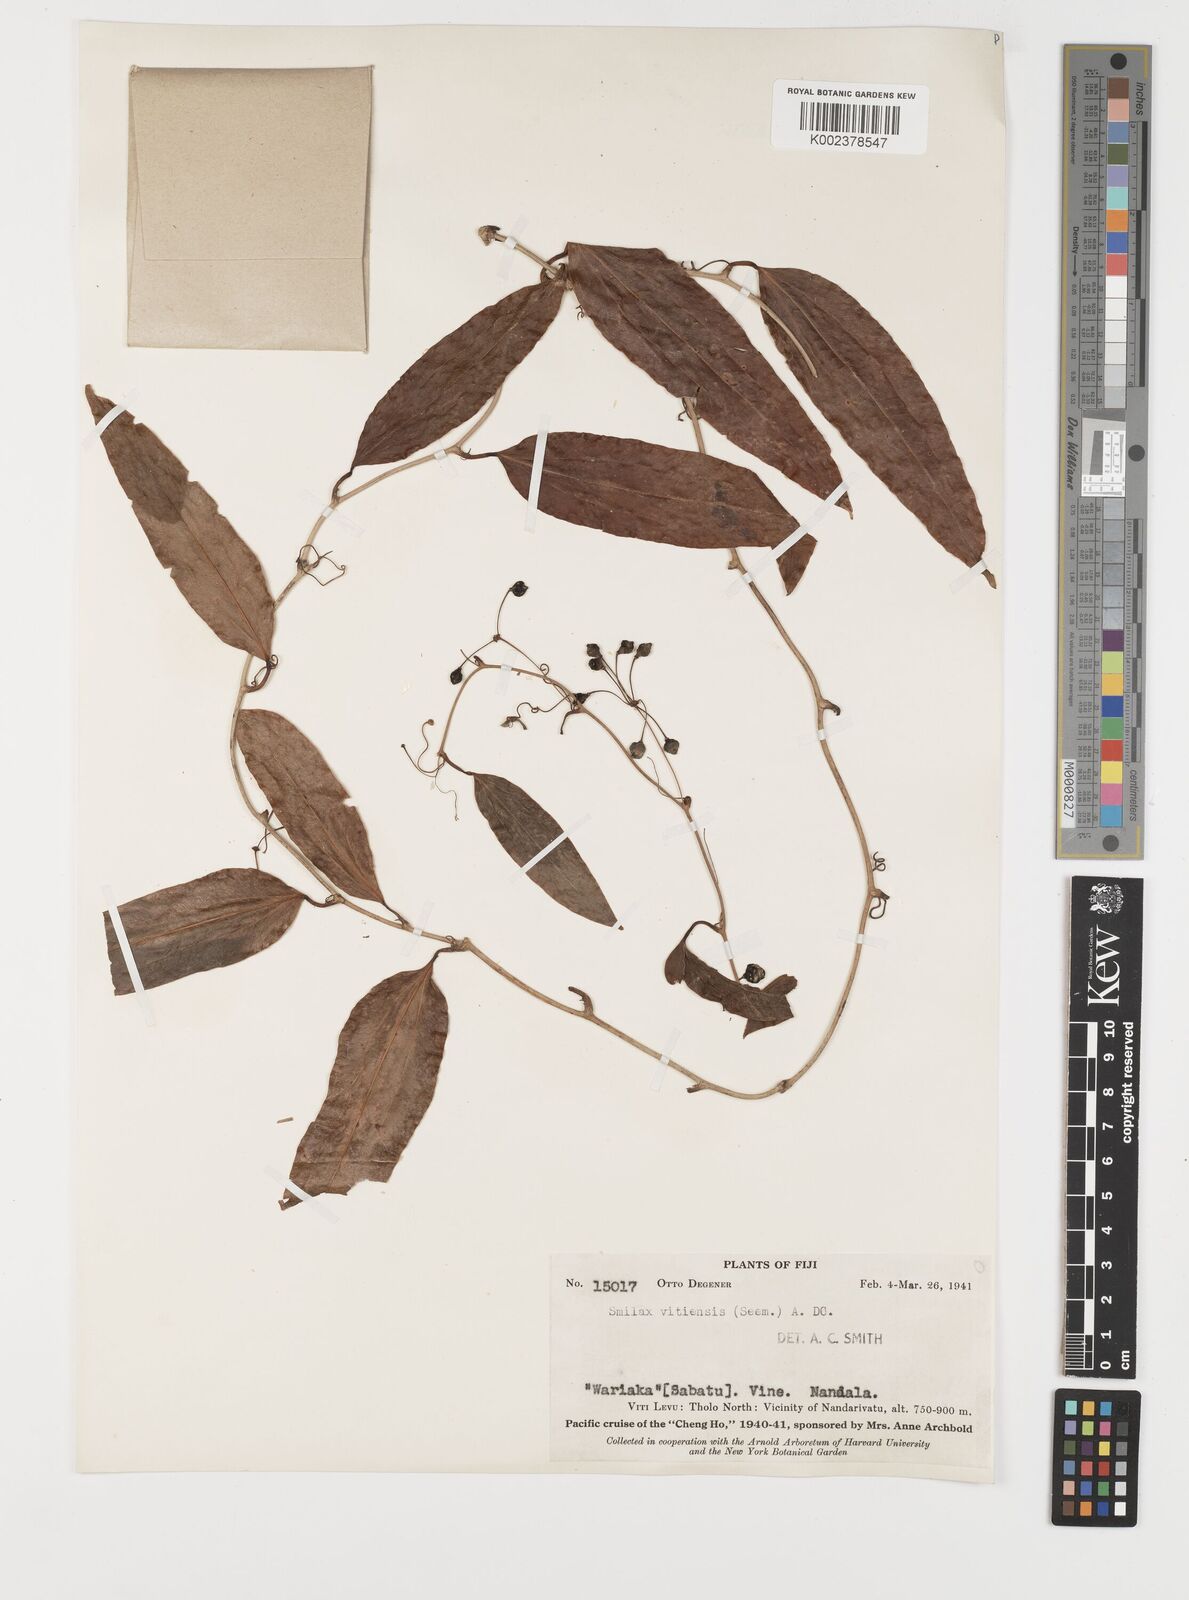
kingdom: Plantae
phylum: Tracheophyta
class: Liliopsida
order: Liliales
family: Smilacaceae
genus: Smilax
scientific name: Smilax
